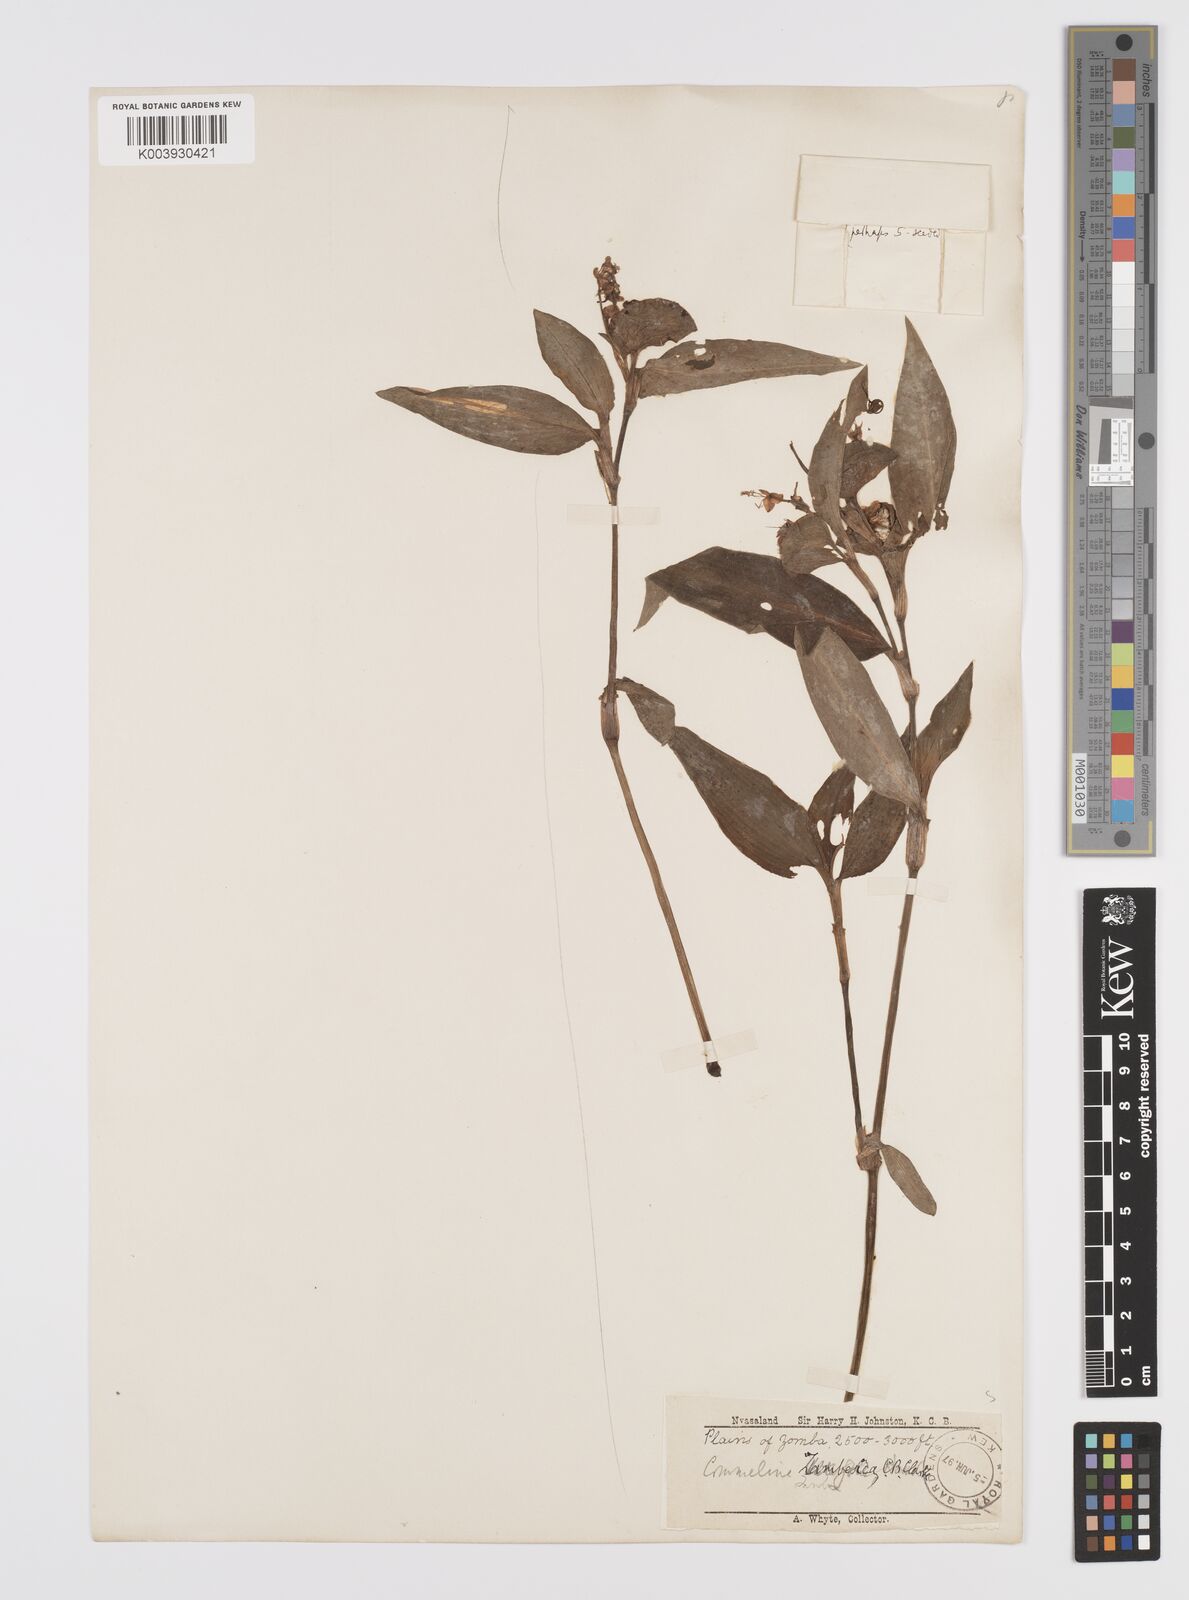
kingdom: Plantae
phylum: Tracheophyta
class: Liliopsida
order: Commelinales
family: Commelinaceae
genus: Commelina
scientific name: Commelina zambesica
